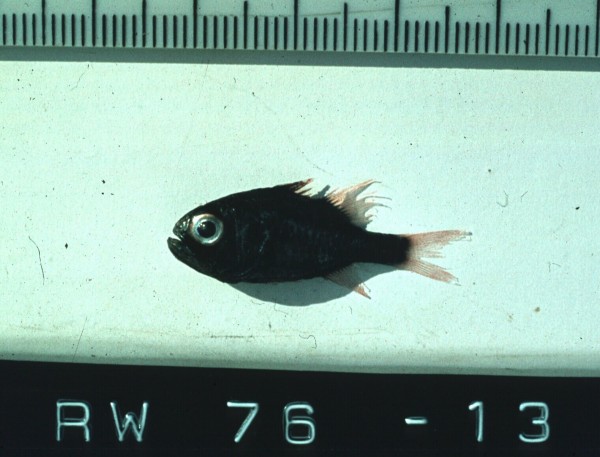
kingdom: Animalia
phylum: Chordata
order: Perciformes
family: Apogonidae
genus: Siphamia
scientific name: Siphamia mossambica
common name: Sea urchin cardinal
